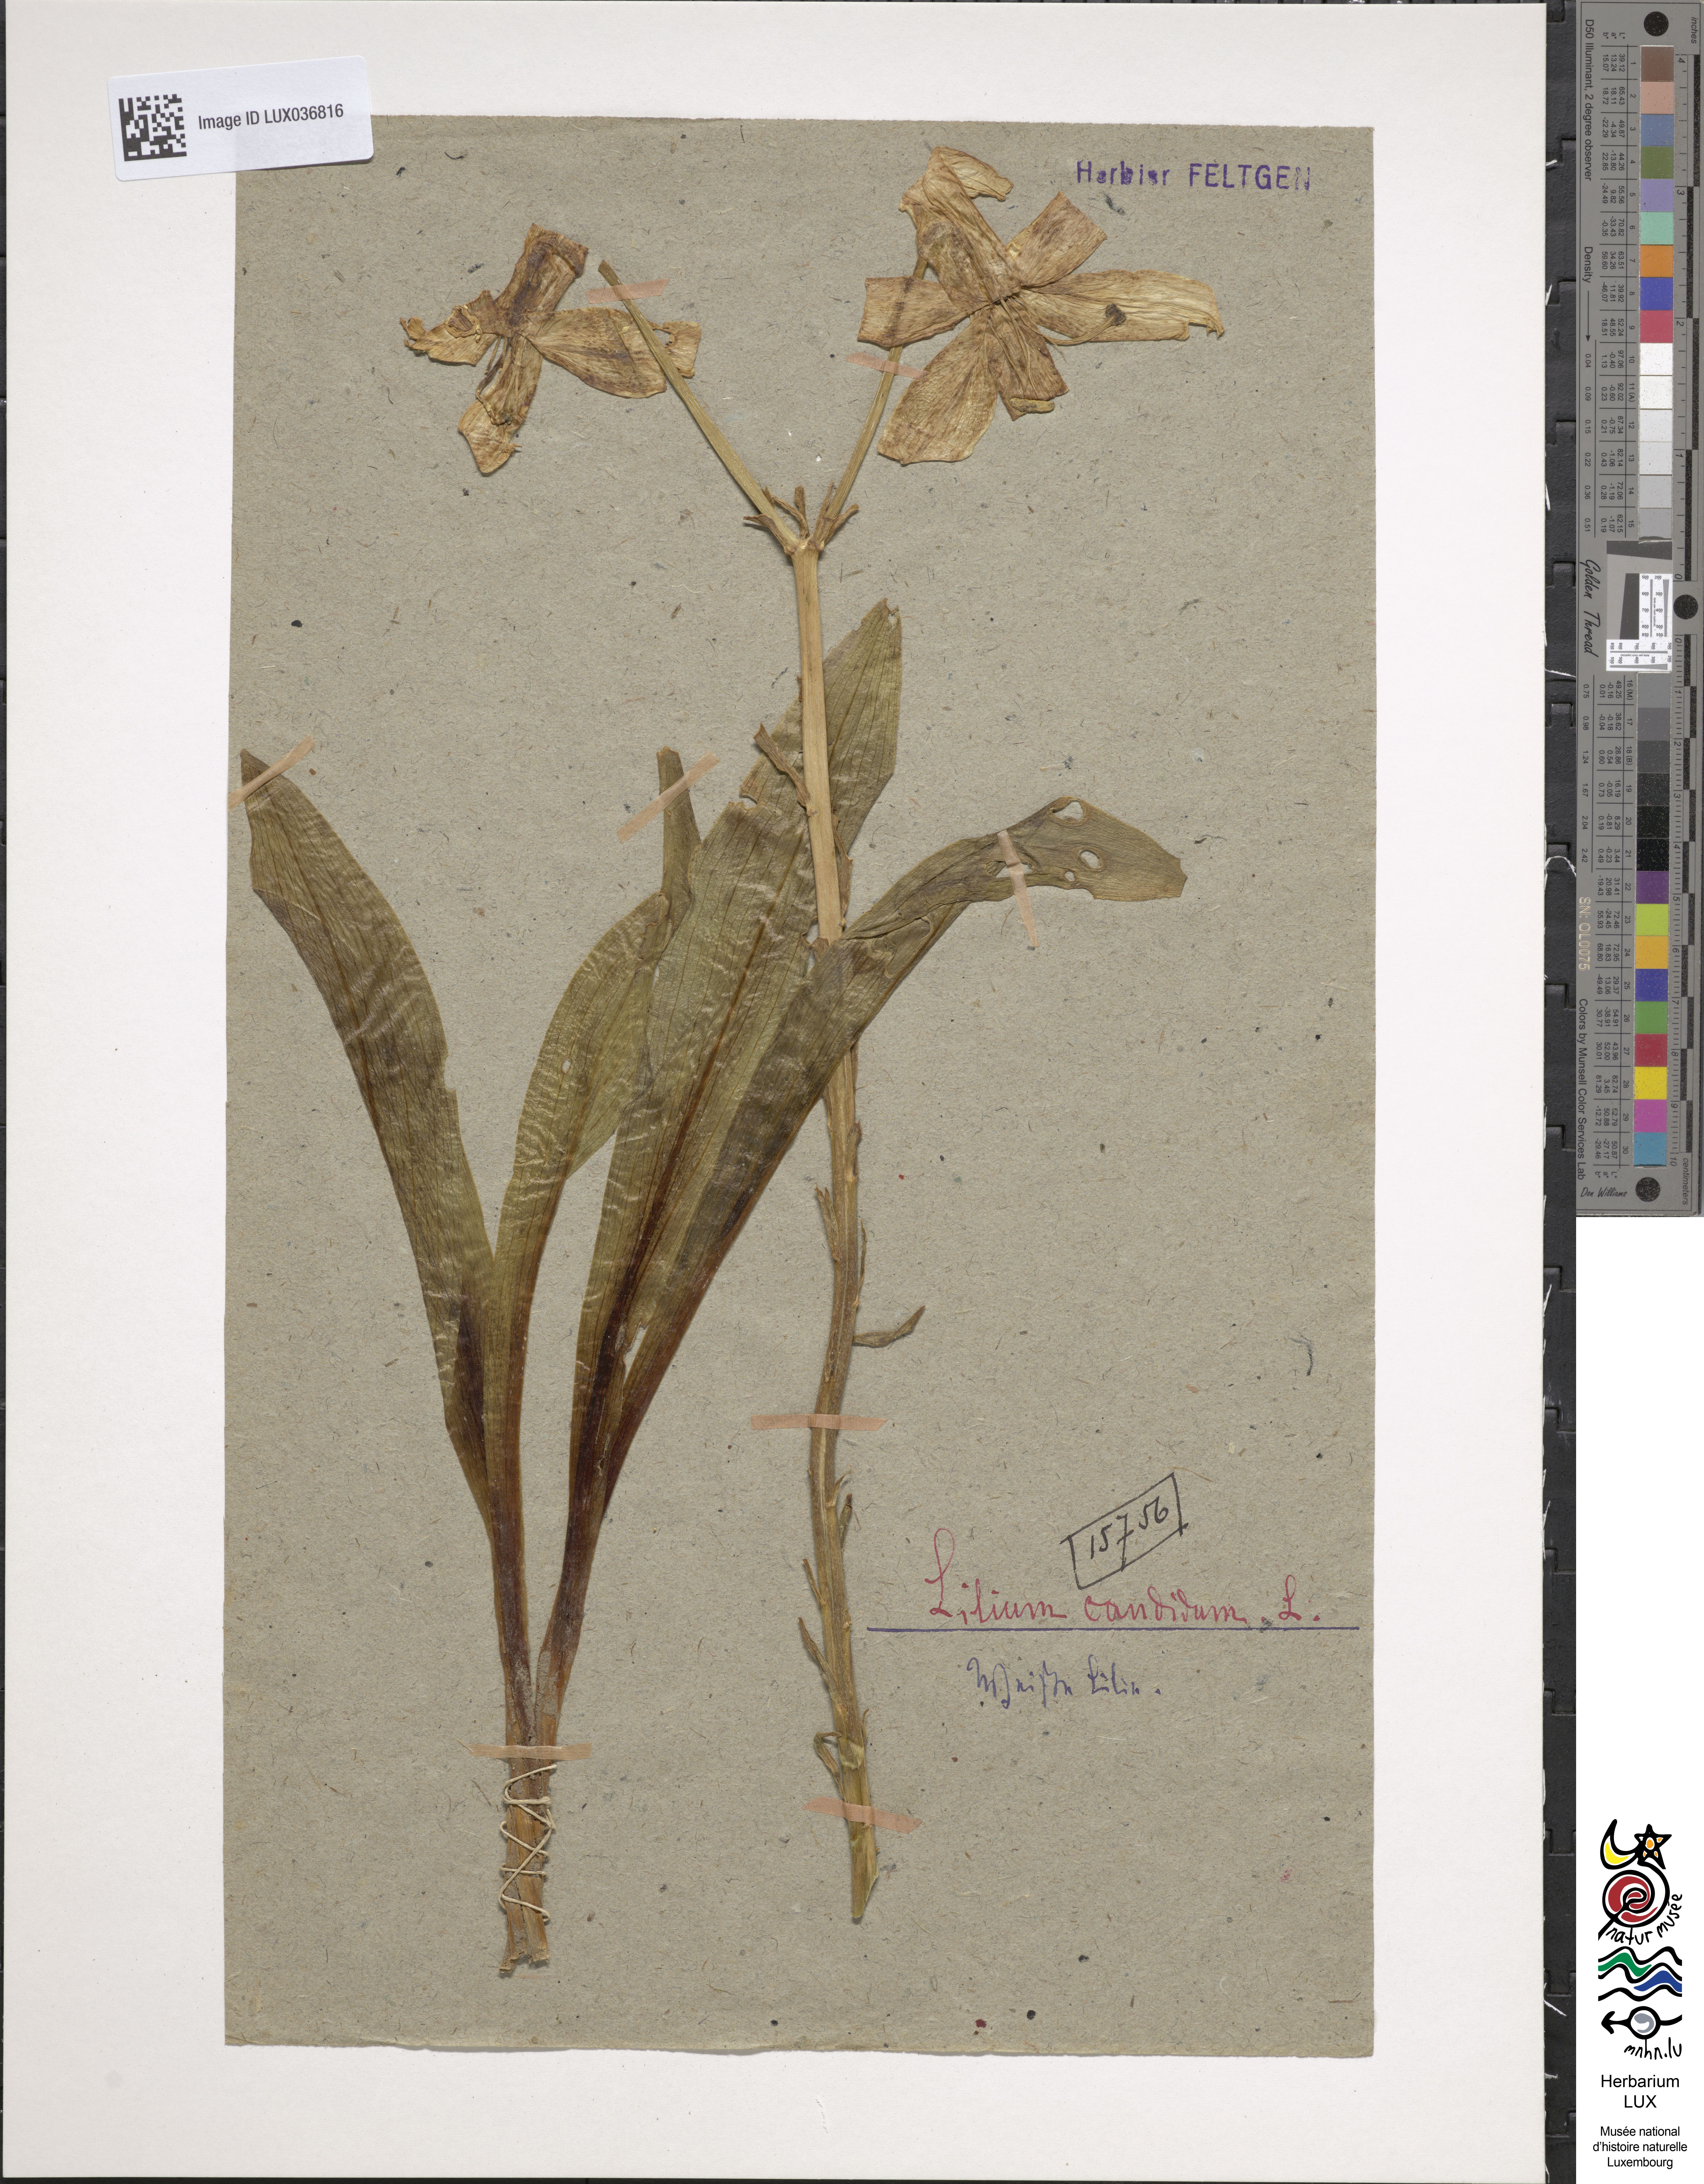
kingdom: Plantae
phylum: Tracheophyta
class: Liliopsida
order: Liliales
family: Liliaceae
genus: Lilium
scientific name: Lilium candidum
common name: Madonna lily
